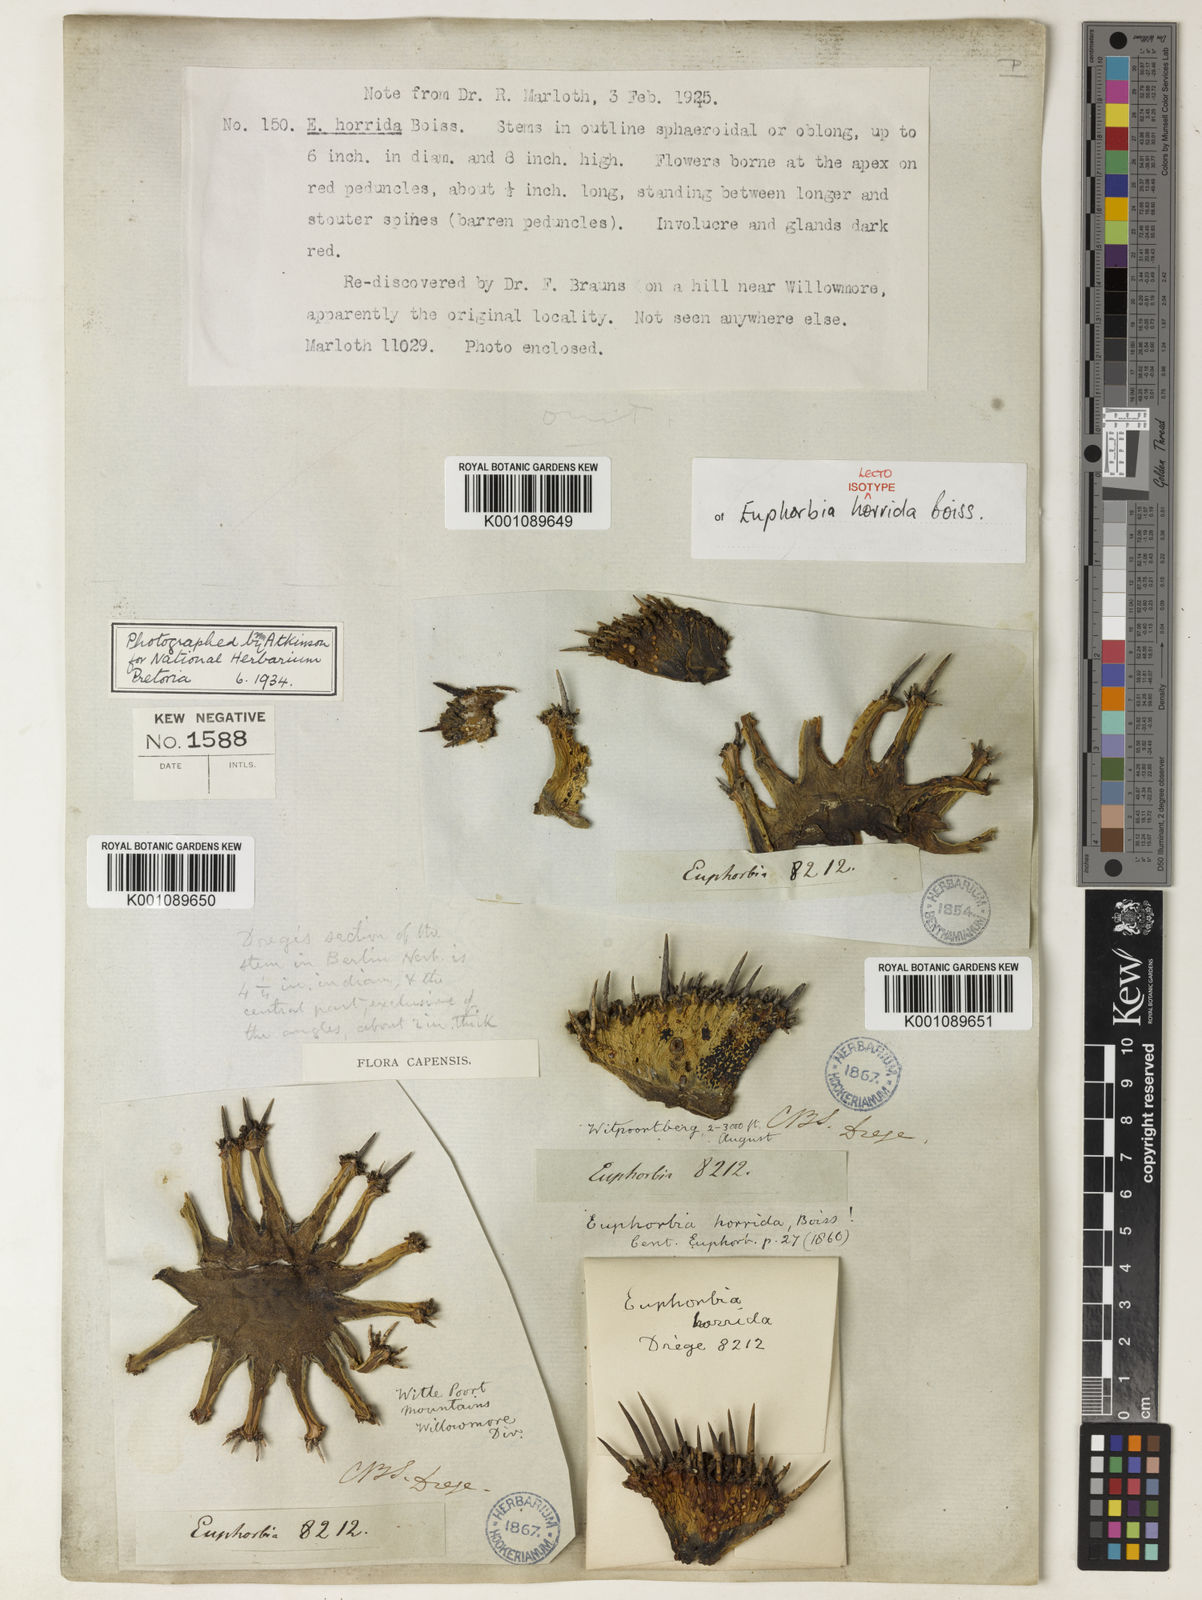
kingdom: Plantae
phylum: Tracheophyta
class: Magnoliopsida
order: Malpighiales
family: Euphorbiaceae
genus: Euphorbia
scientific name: Euphorbia polygona
